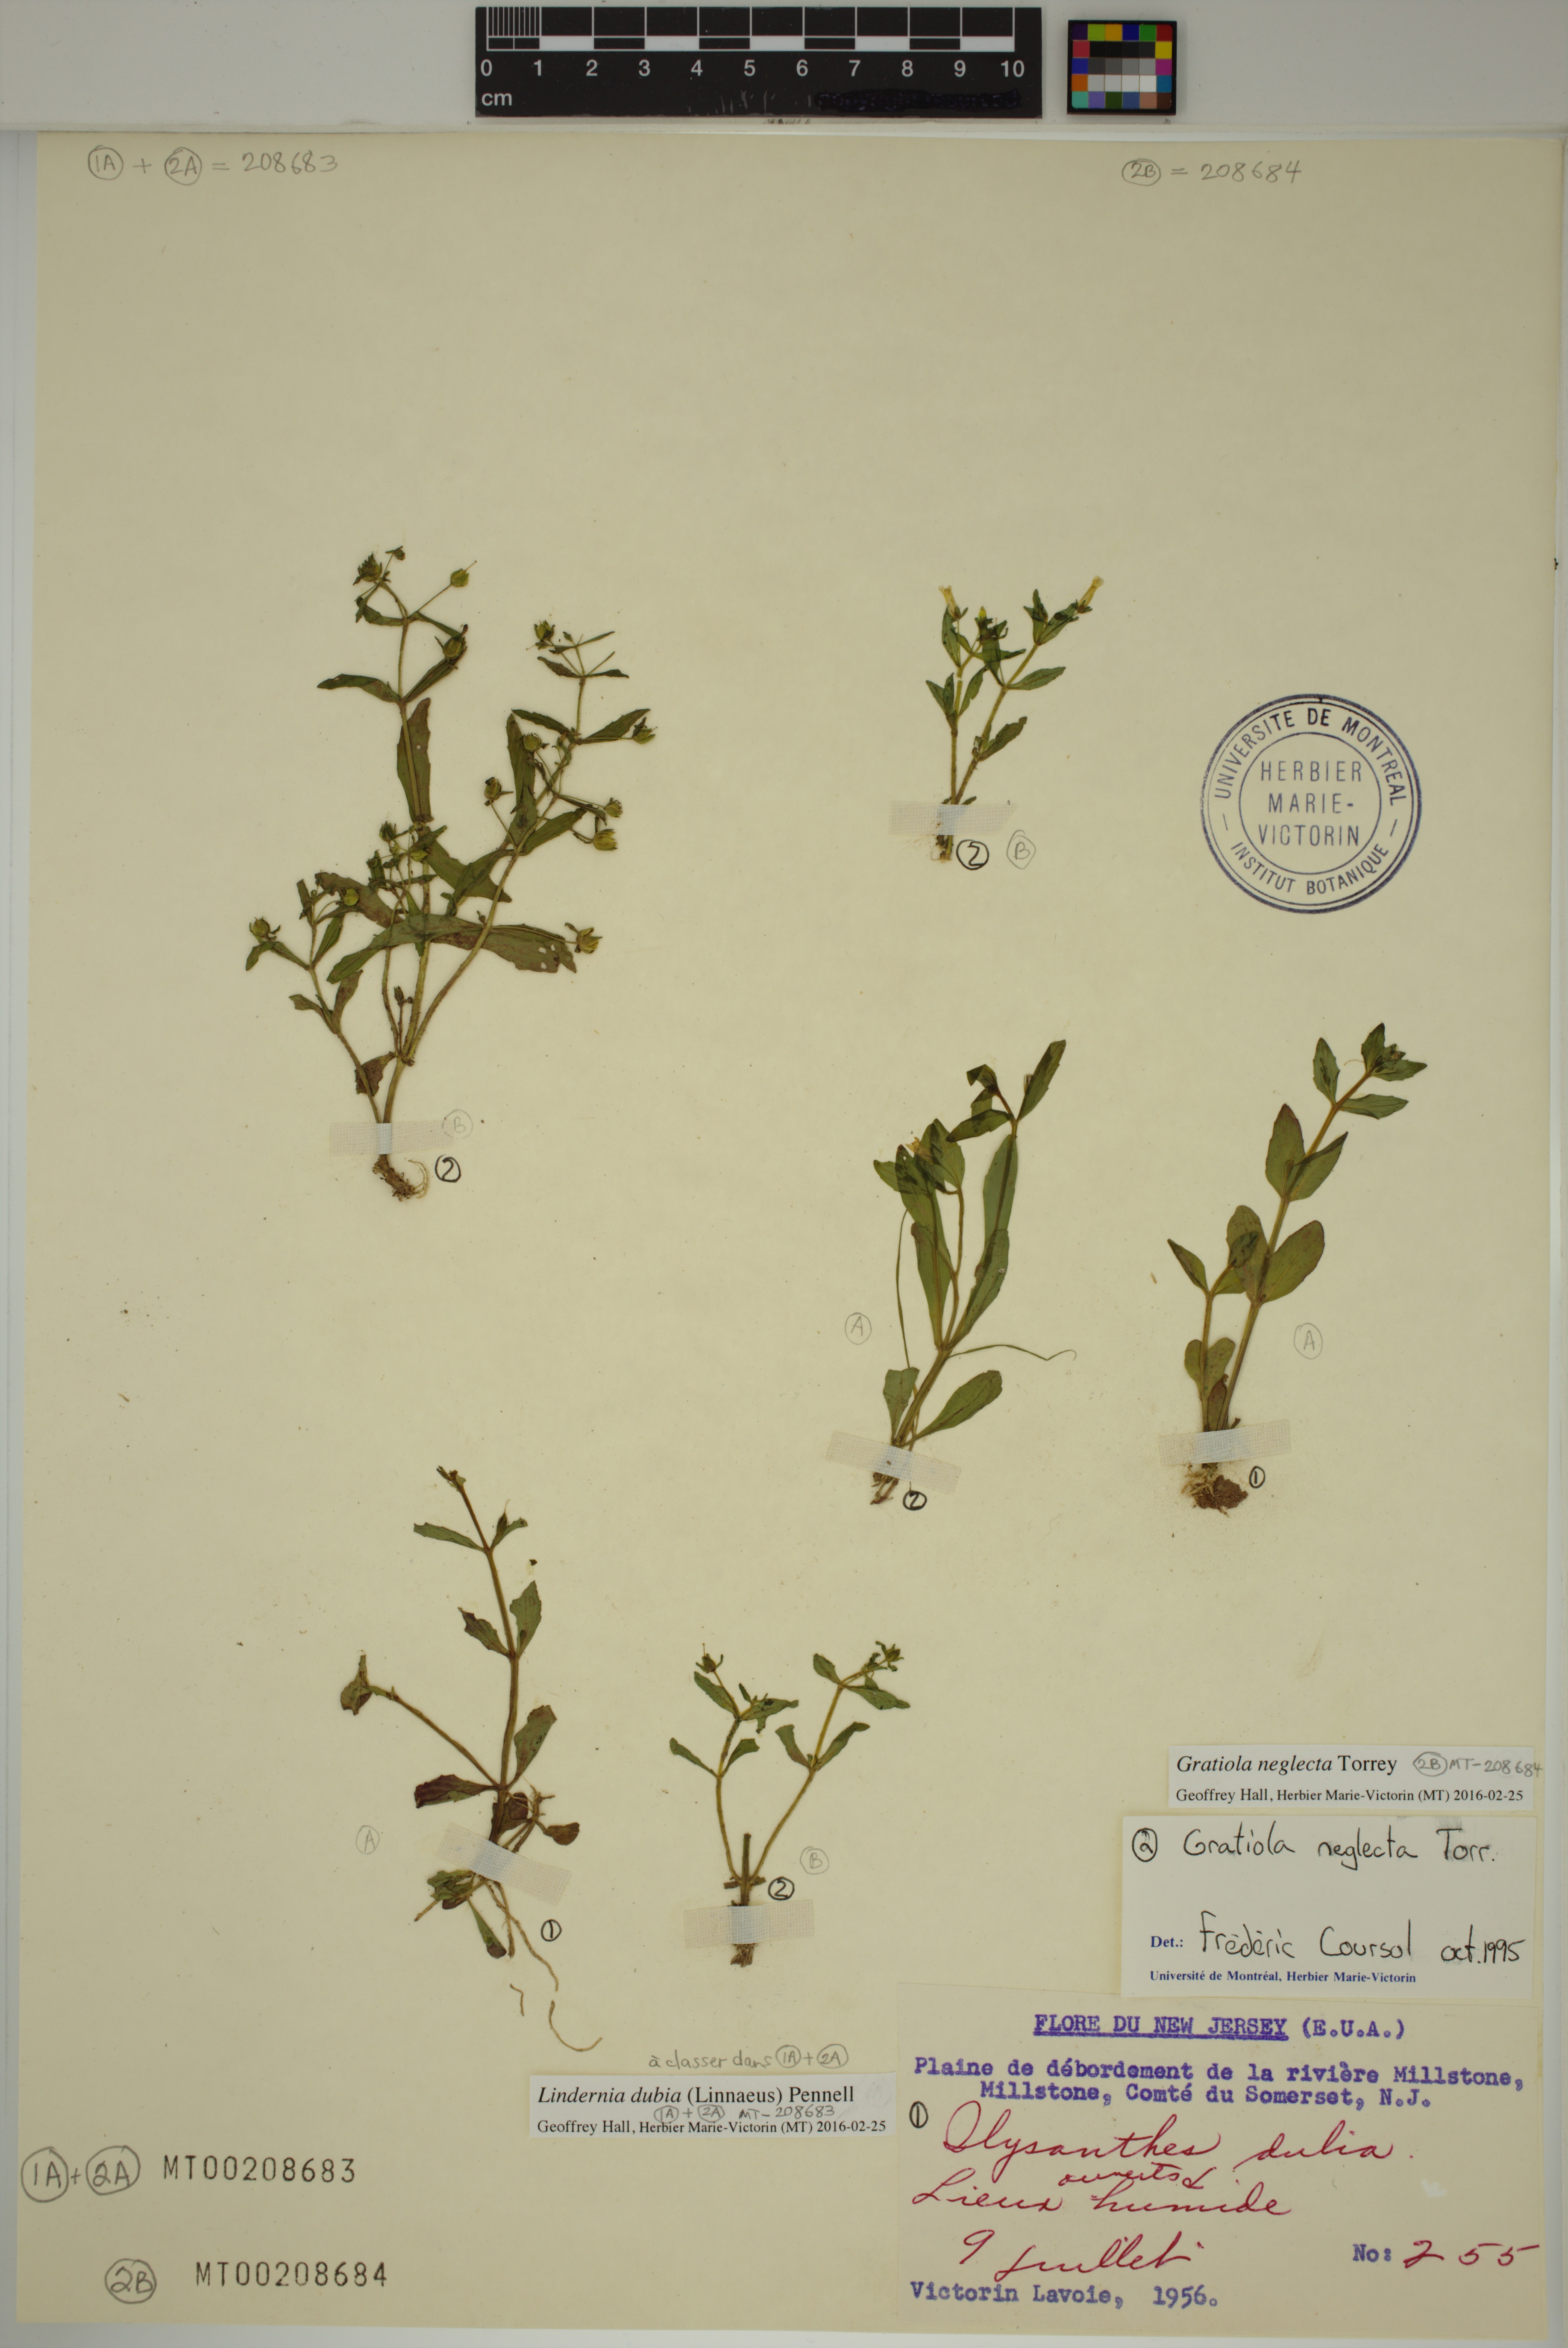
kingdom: Plantae
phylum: Tracheophyta
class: Magnoliopsida
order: Lamiales
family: Plantaginaceae
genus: Gratiola
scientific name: Gratiola neglecta
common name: American hedge-hyssop
